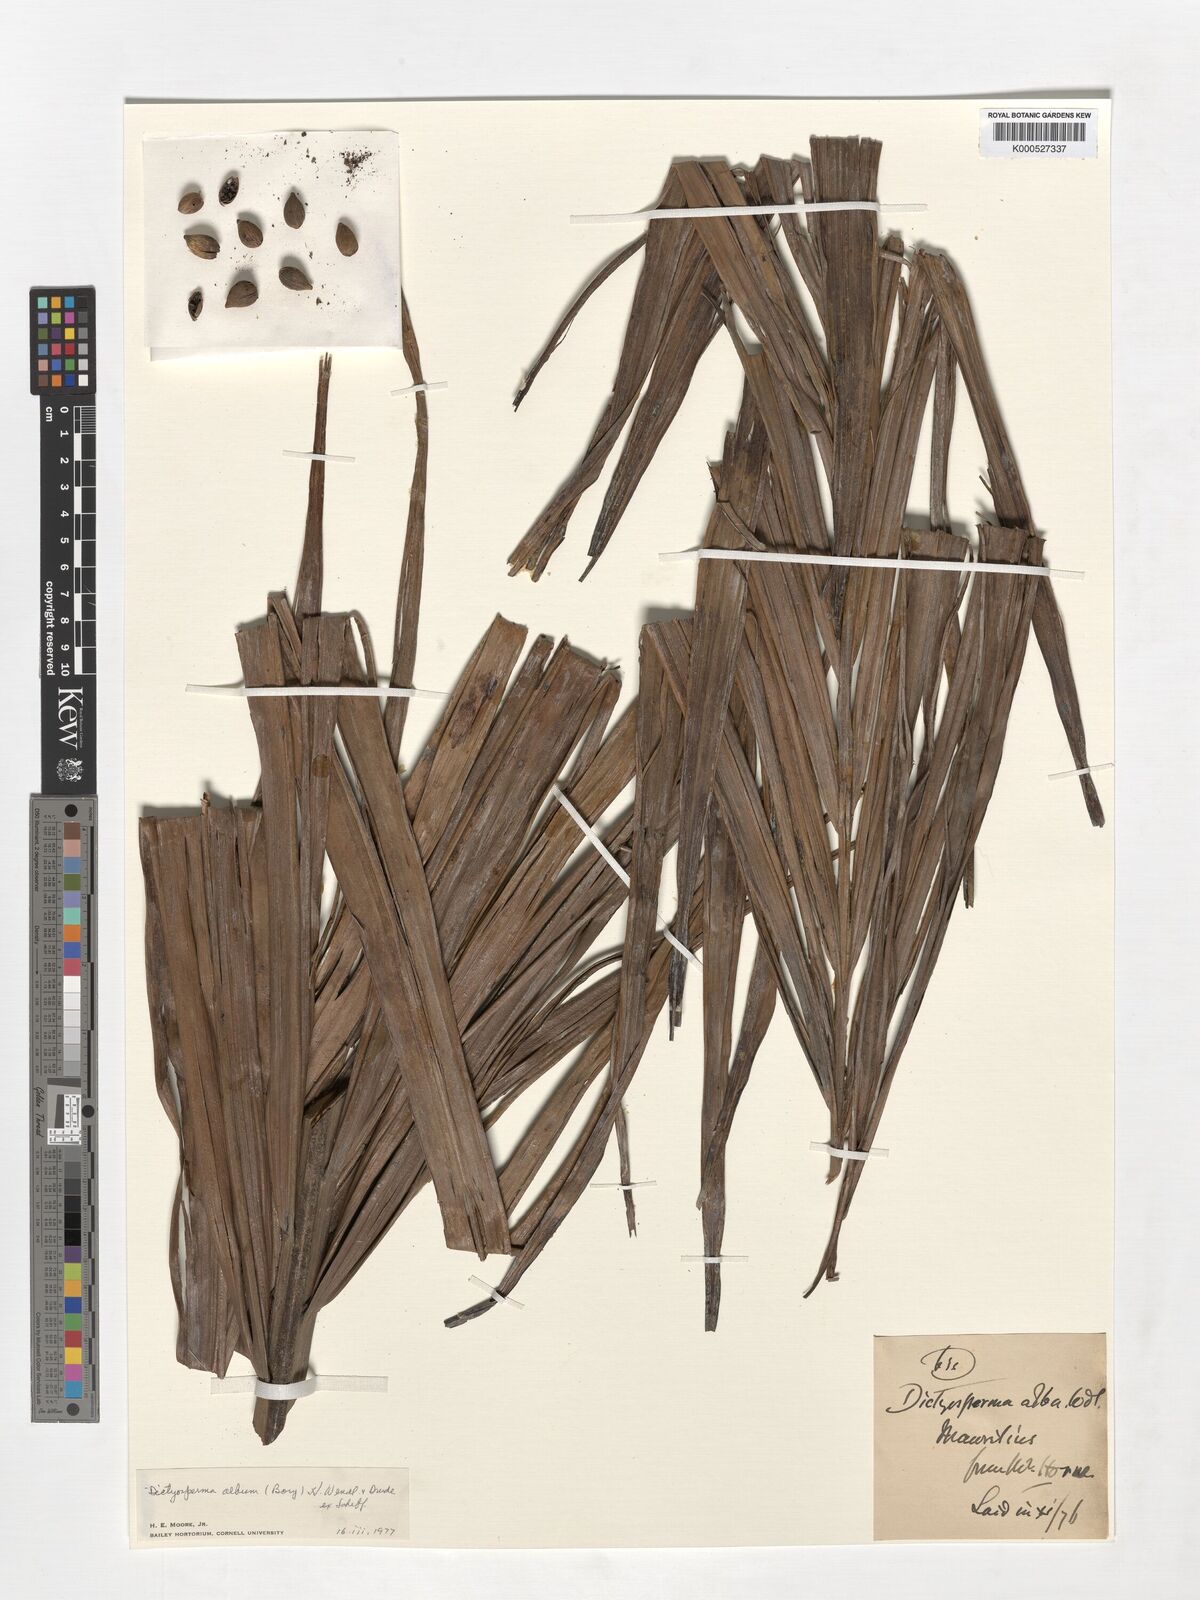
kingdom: Plantae
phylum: Tracheophyta
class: Liliopsida
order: Arecales
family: Arecaceae
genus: Dictyosperma
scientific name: Dictyosperma album
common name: Common princess palm
